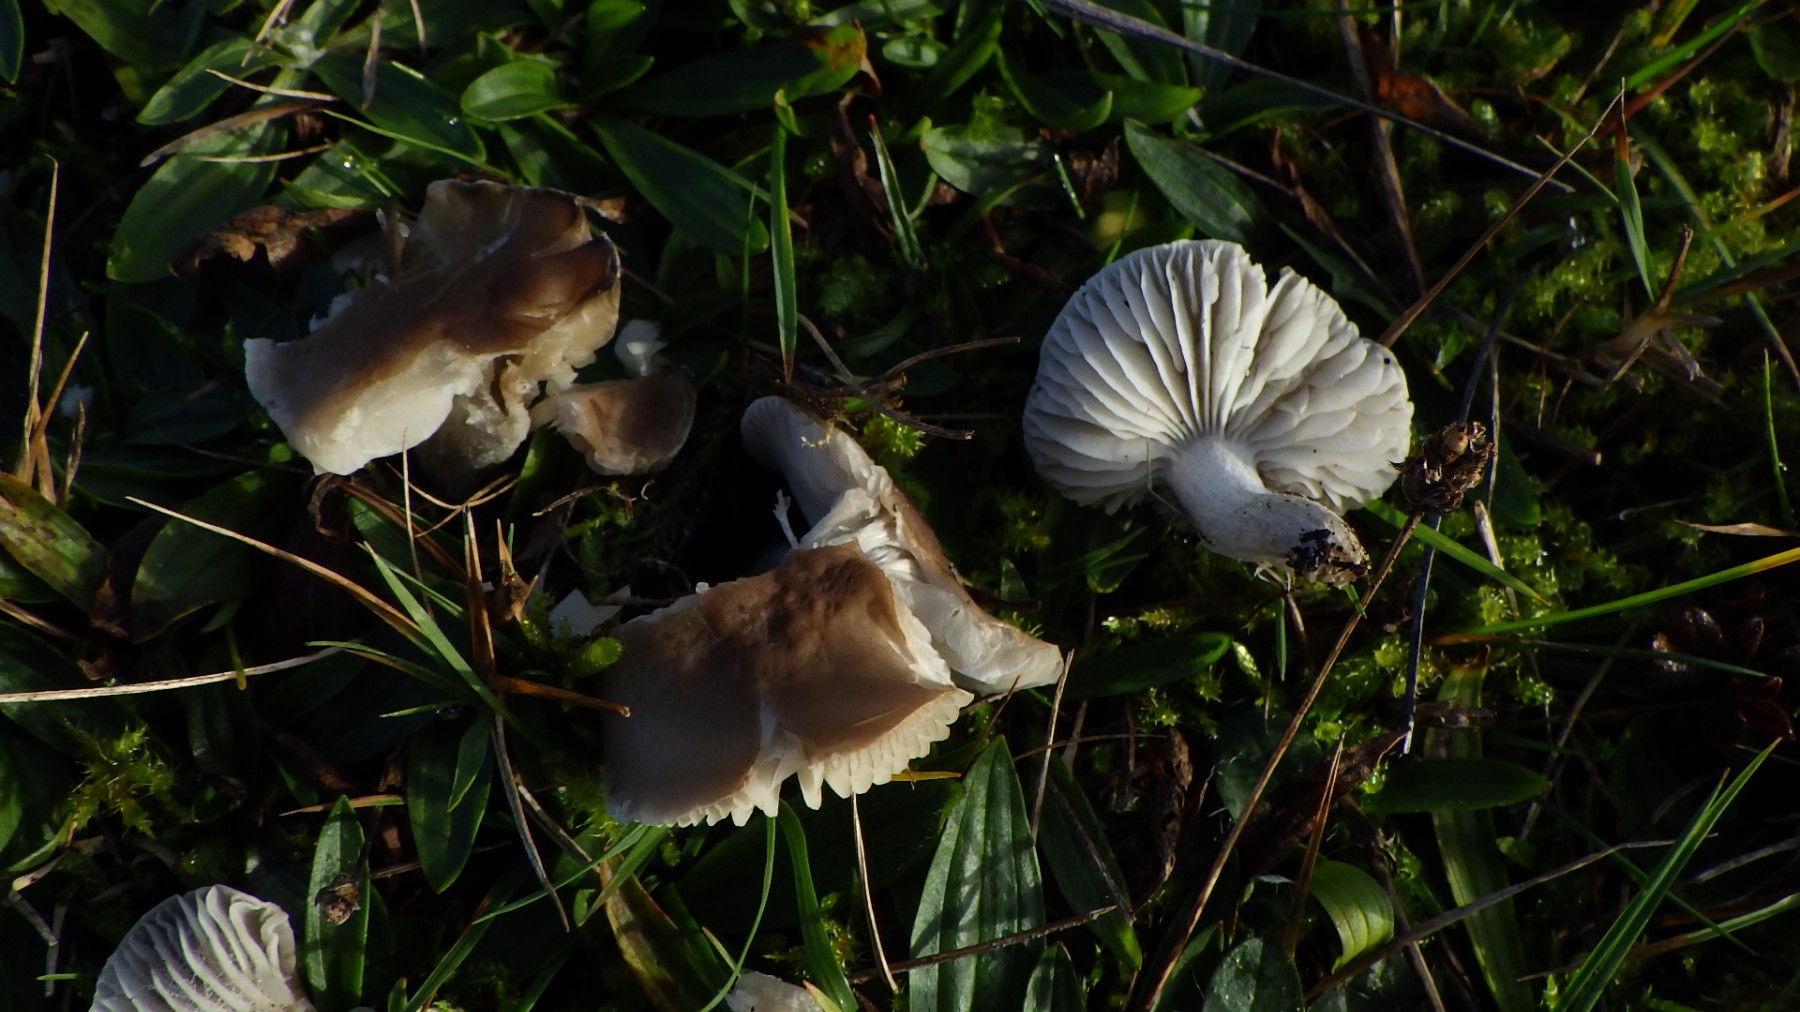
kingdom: Fungi
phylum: Basidiomycota
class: Agaricomycetes
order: Agaricales
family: Tricholomataceae
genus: Dermoloma
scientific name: Dermoloma cuneifolium
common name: eng-nonnehat
